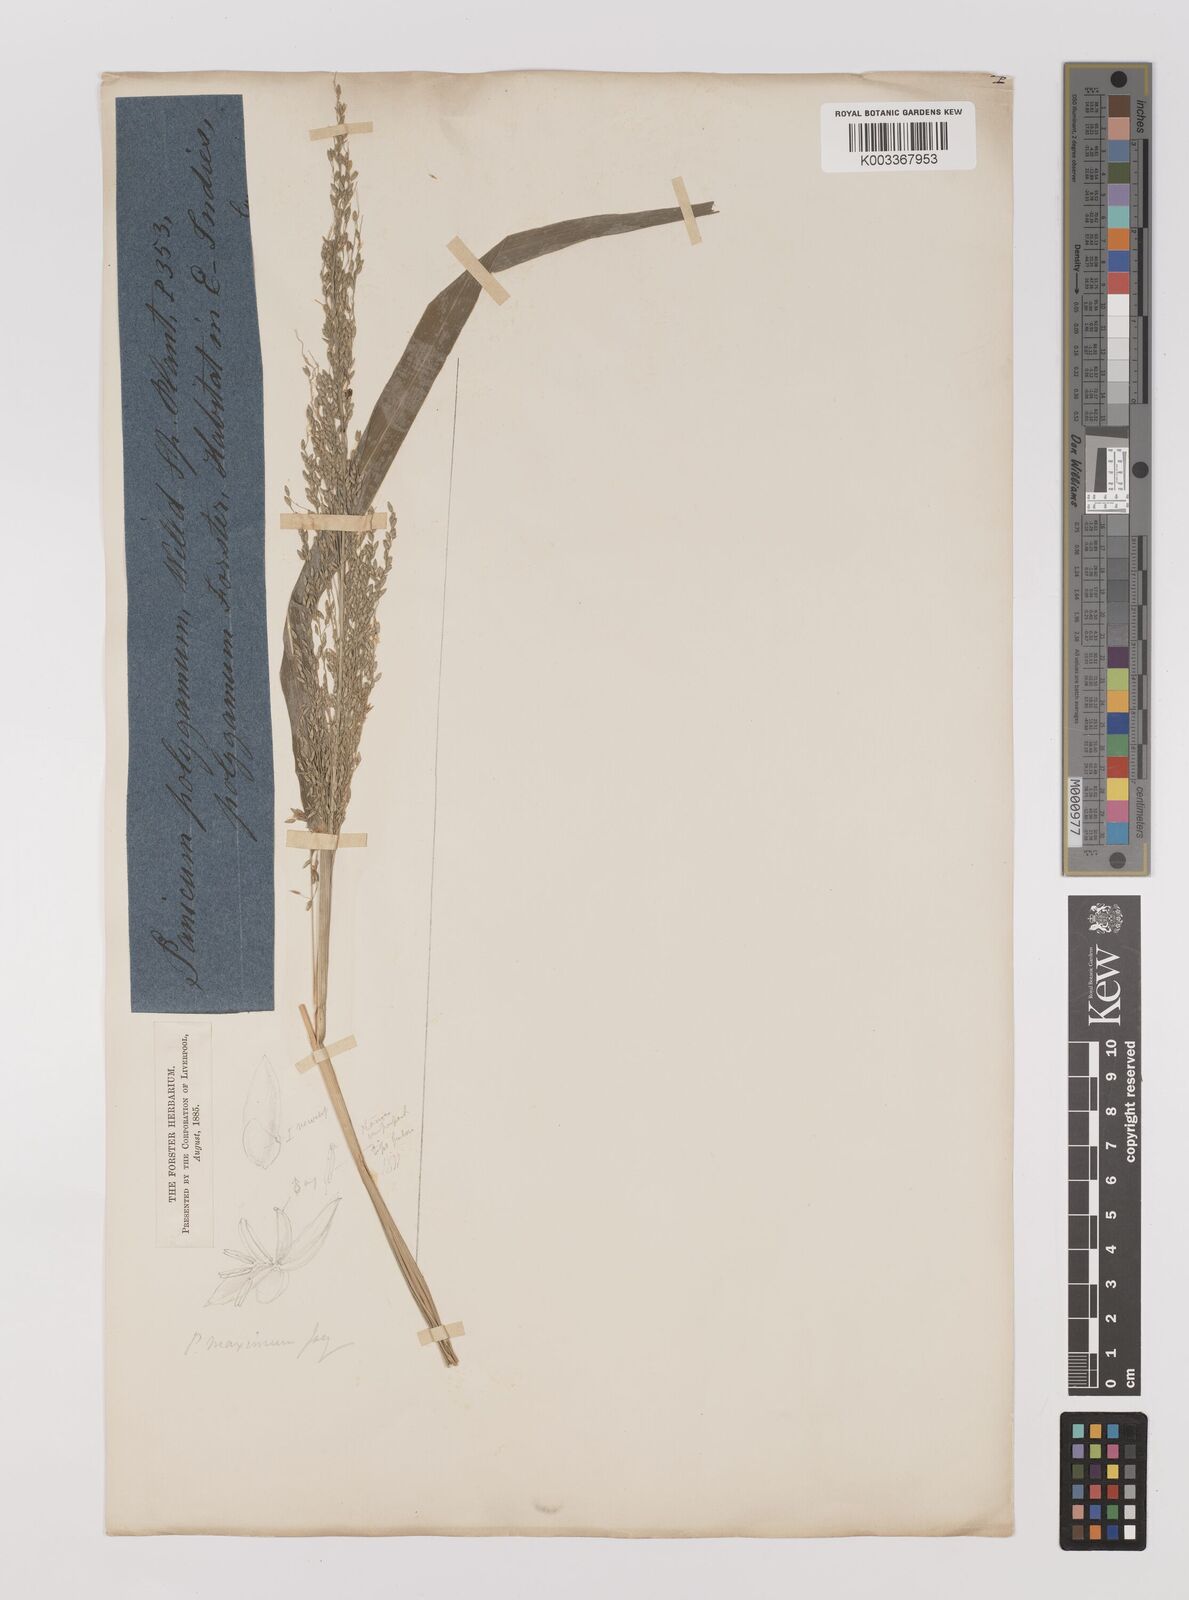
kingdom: Plantae
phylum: Tracheophyta
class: Liliopsida
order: Poales
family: Poaceae
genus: Megathyrsus
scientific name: Megathyrsus maximus
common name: Guineagrass
